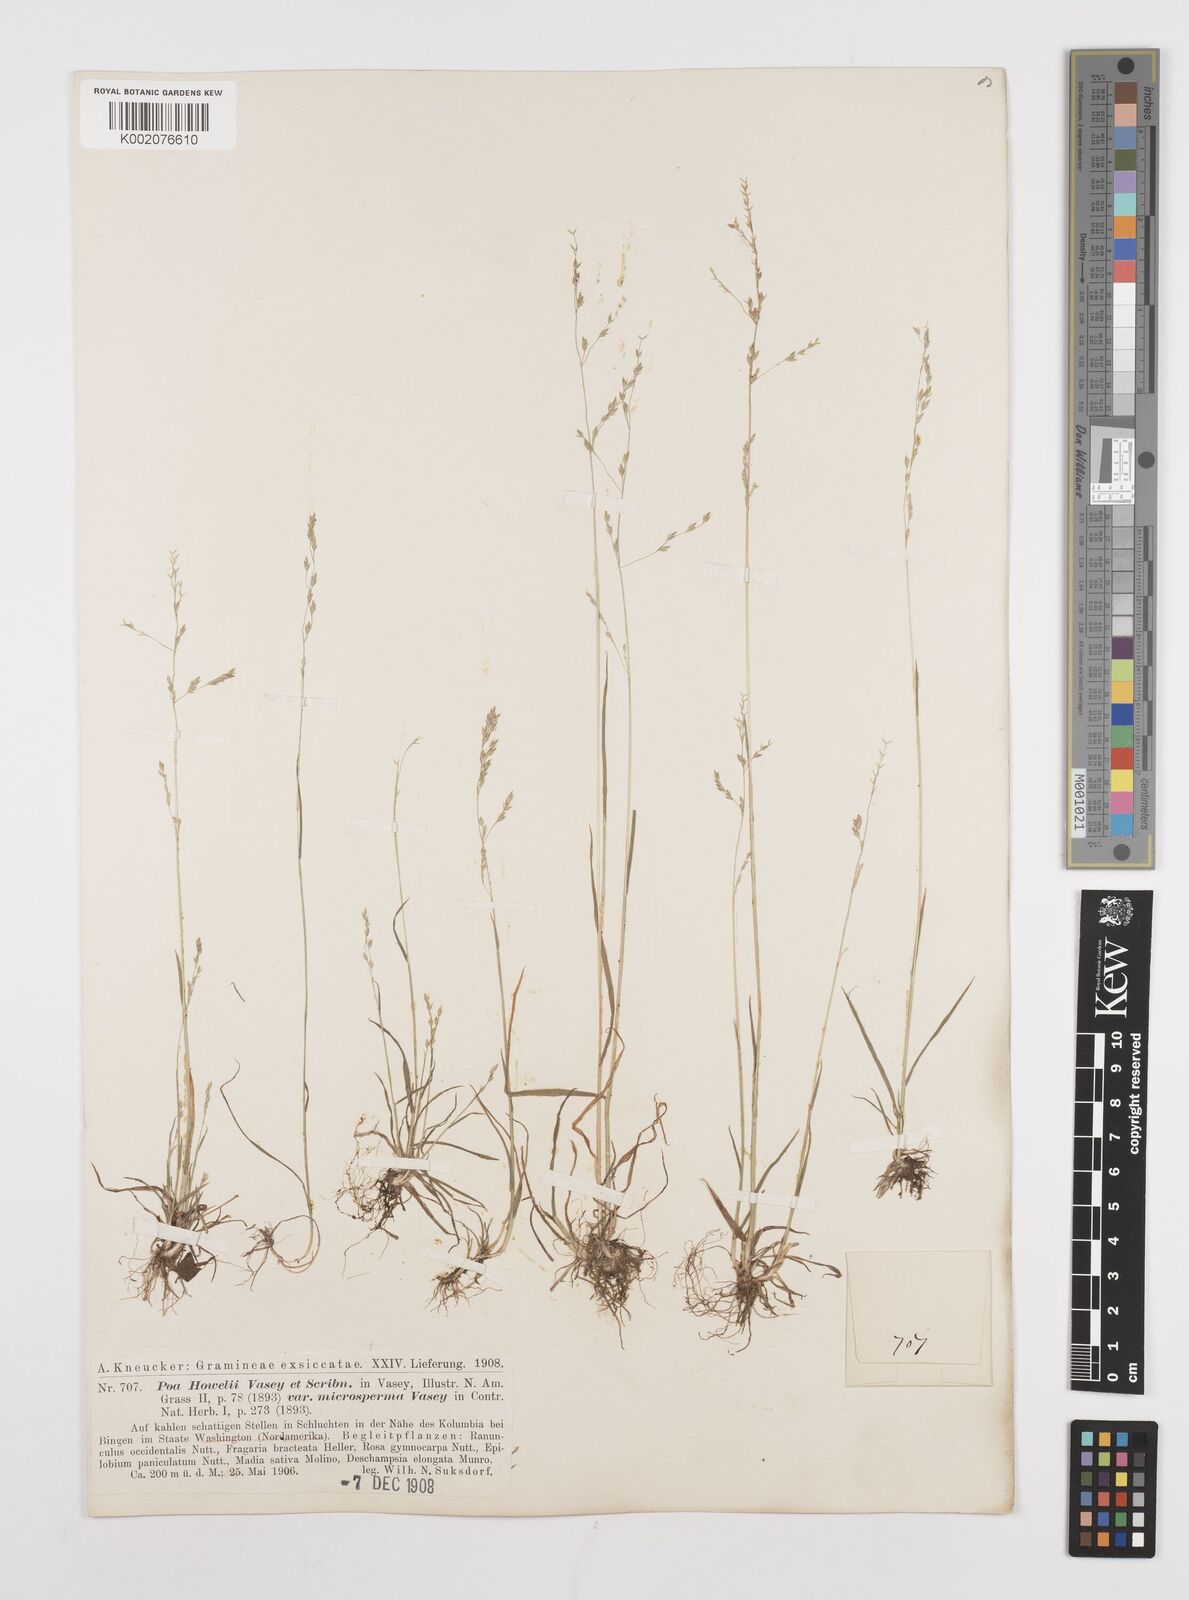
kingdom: Plantae
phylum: Tracheophyta
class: Liliopsida
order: Poales
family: Poaceae
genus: Poa
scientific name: Poa howellii
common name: Howell's bluegrass
